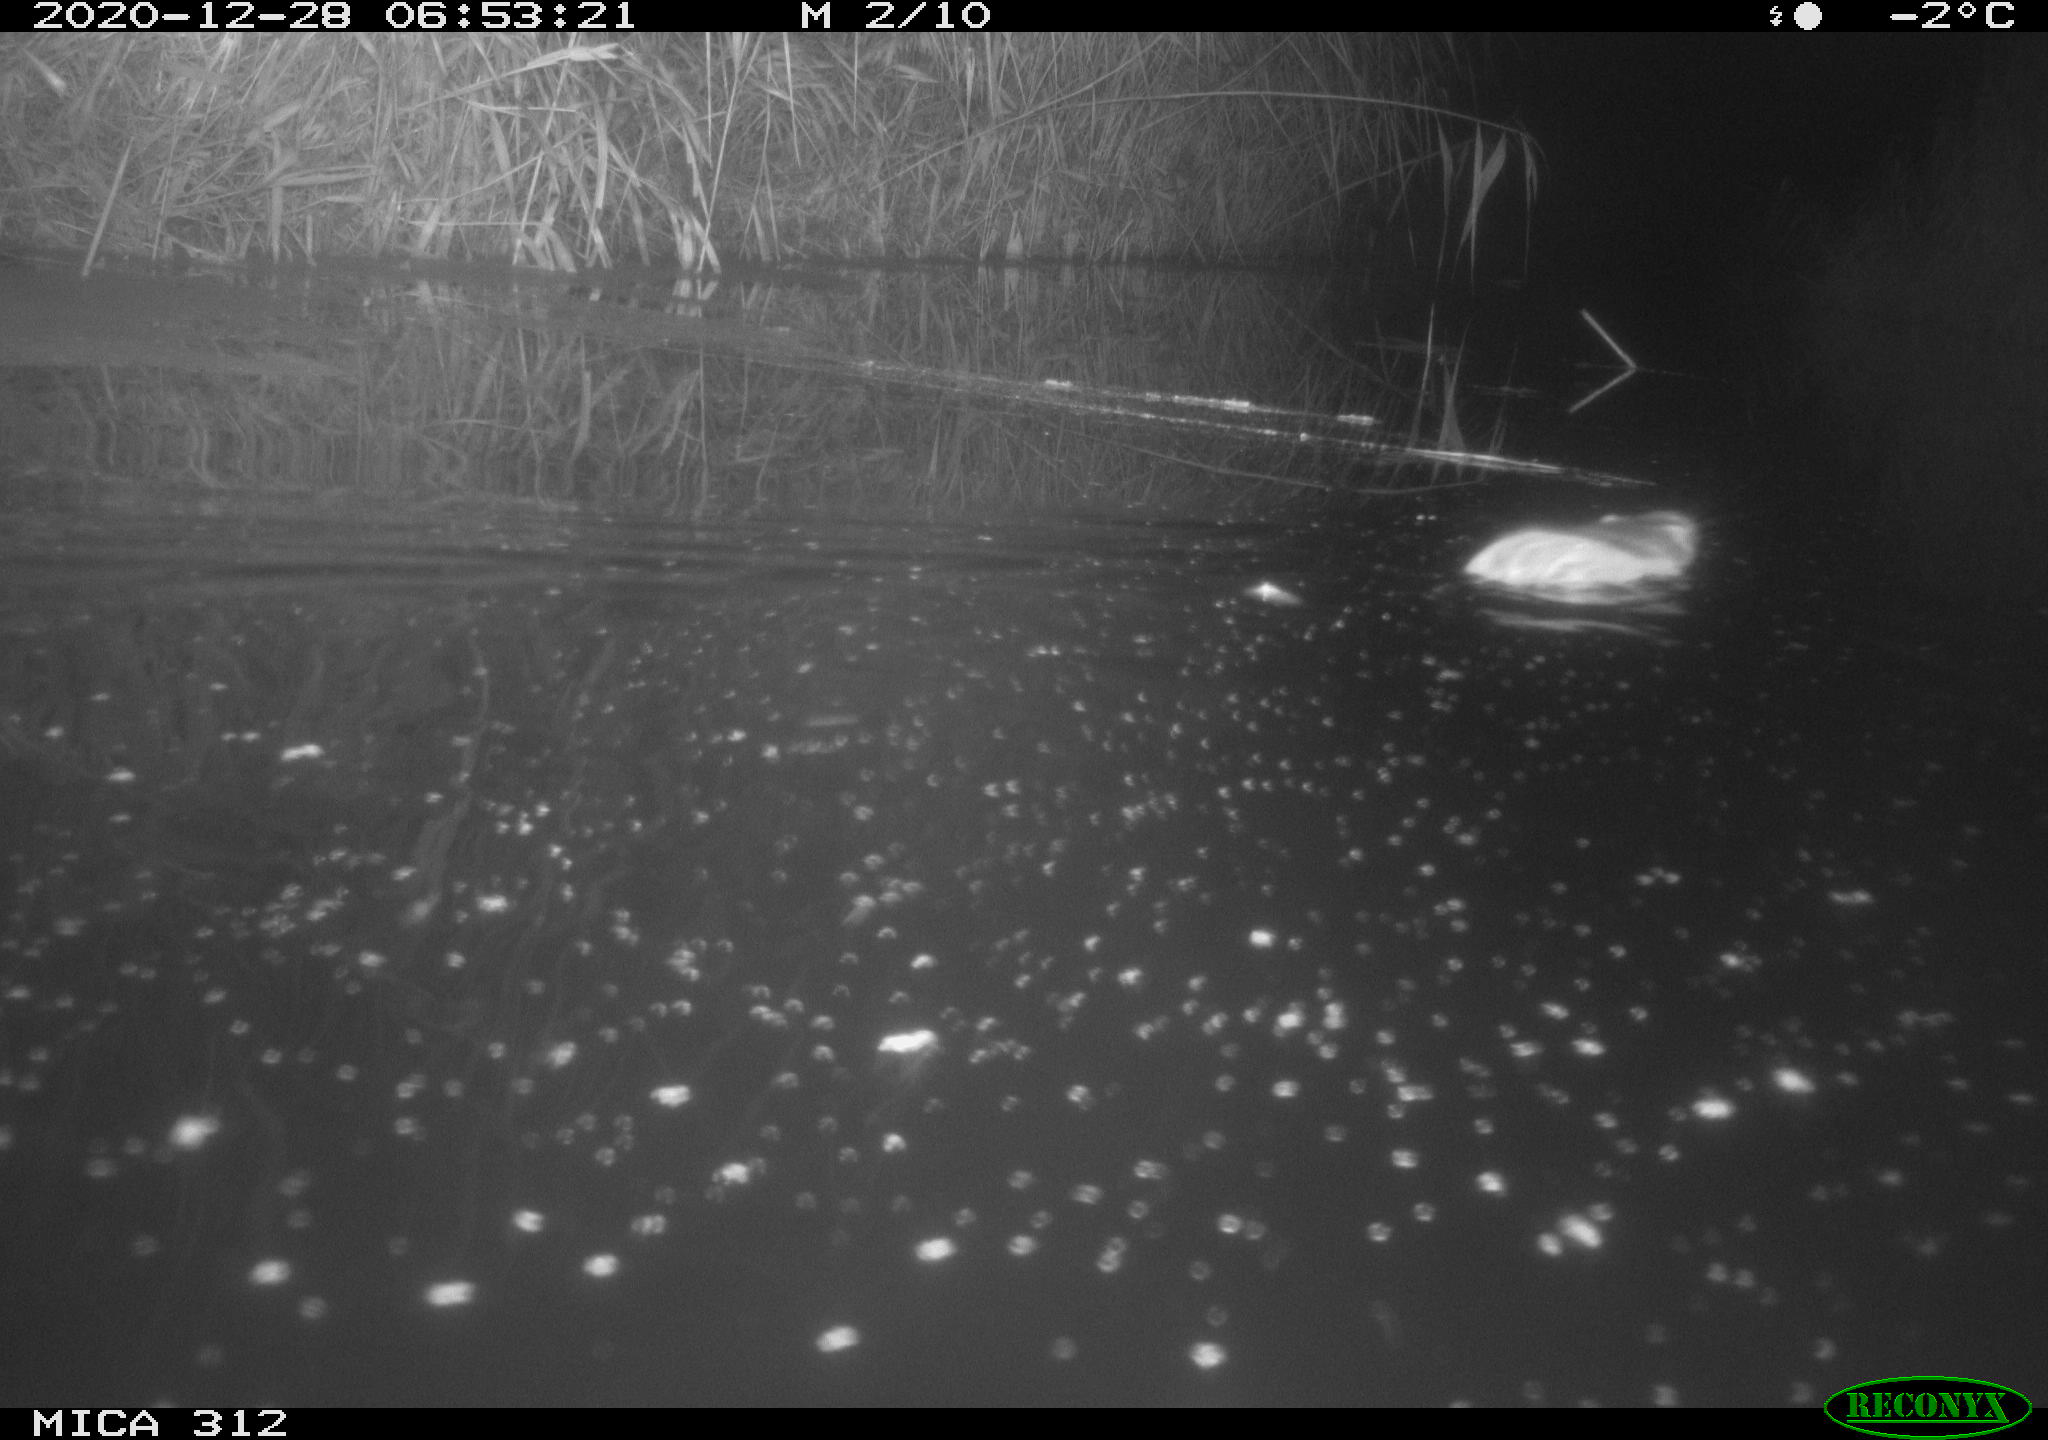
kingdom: Animalia
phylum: Chordata
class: Mammalia
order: Rodentia
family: Muridae
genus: Rattus
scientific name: Rattus norvegicus
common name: Brown rat
